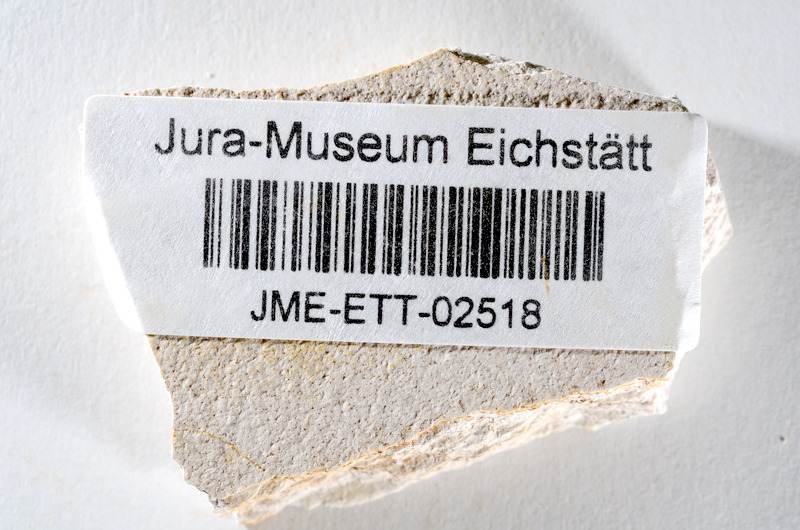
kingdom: Animalia
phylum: Chordata
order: Salmoniformes
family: Orthogonikleithridae
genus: Orthogonikleithrus
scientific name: Orthogonikleithrus hoelli
